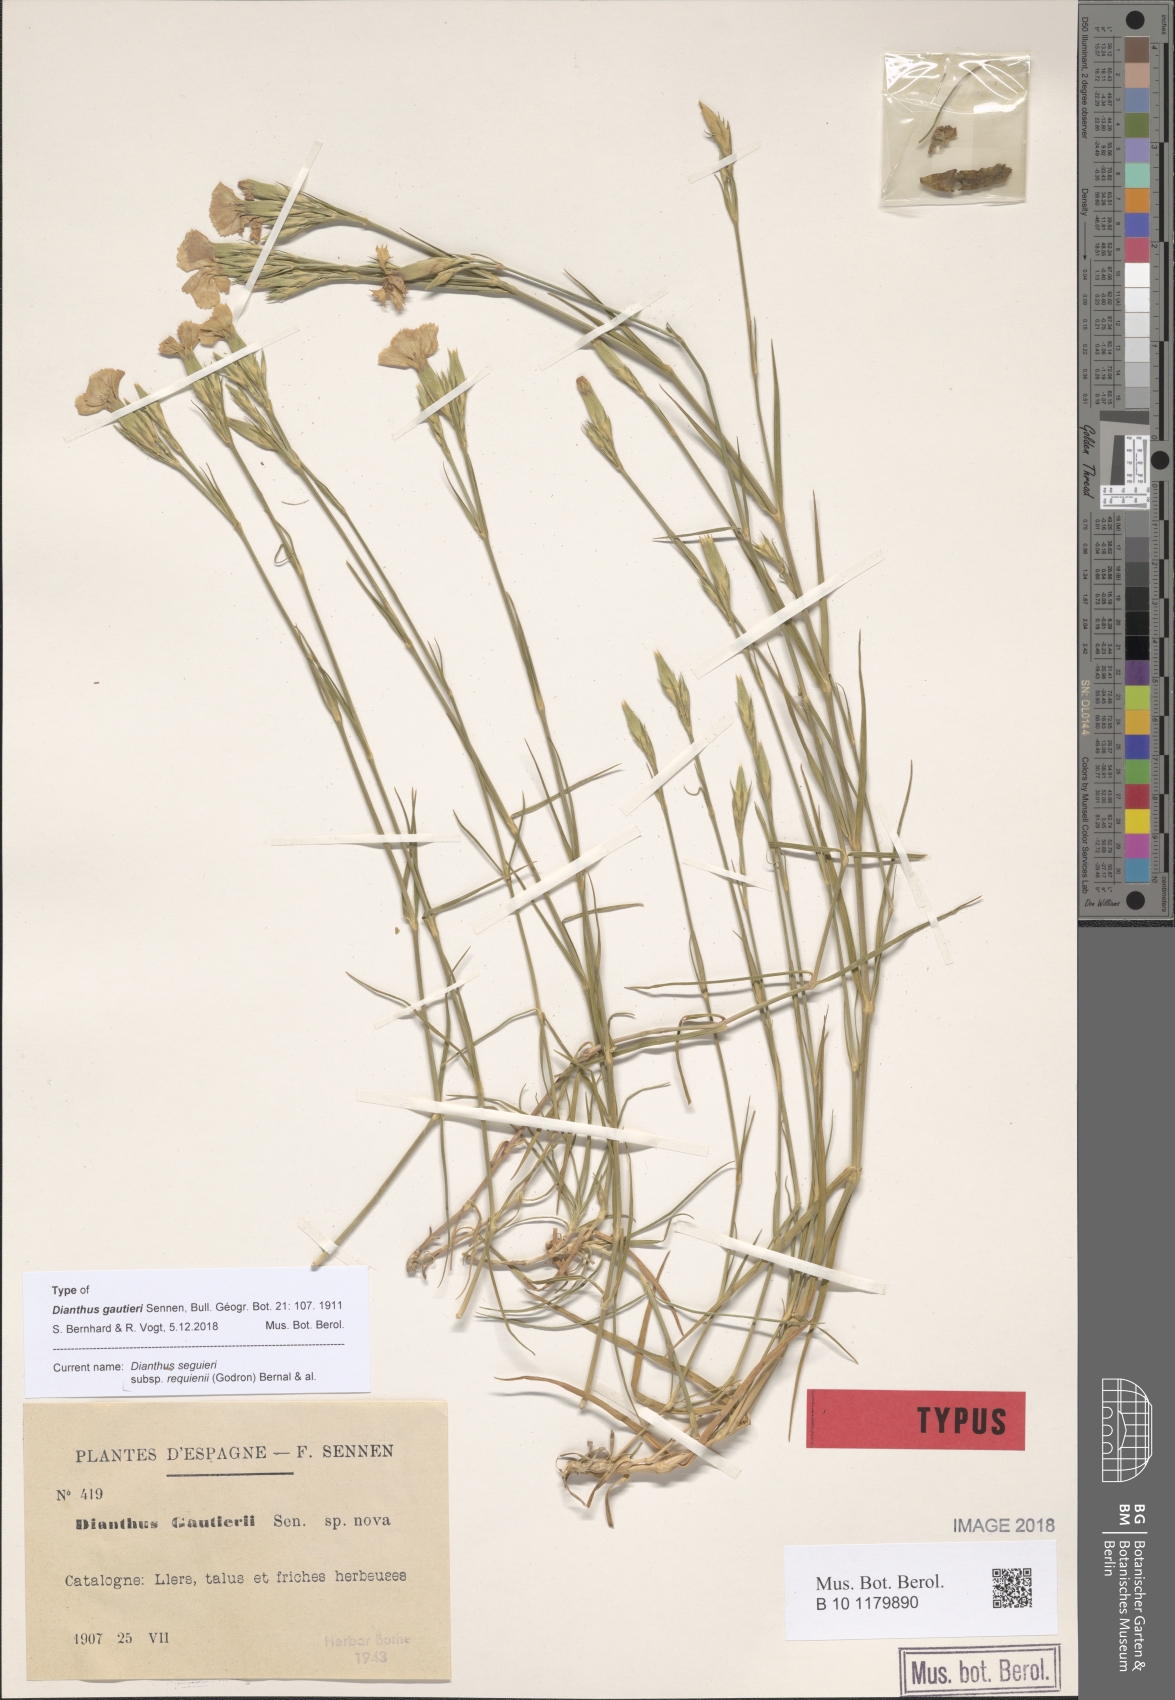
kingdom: Plantae
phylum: Tracheophyta
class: Magnoliopsida
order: Caryophyllales
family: Caryophyllaceae
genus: Dianthus
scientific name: Dianthus seguieri
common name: Ragged pink
